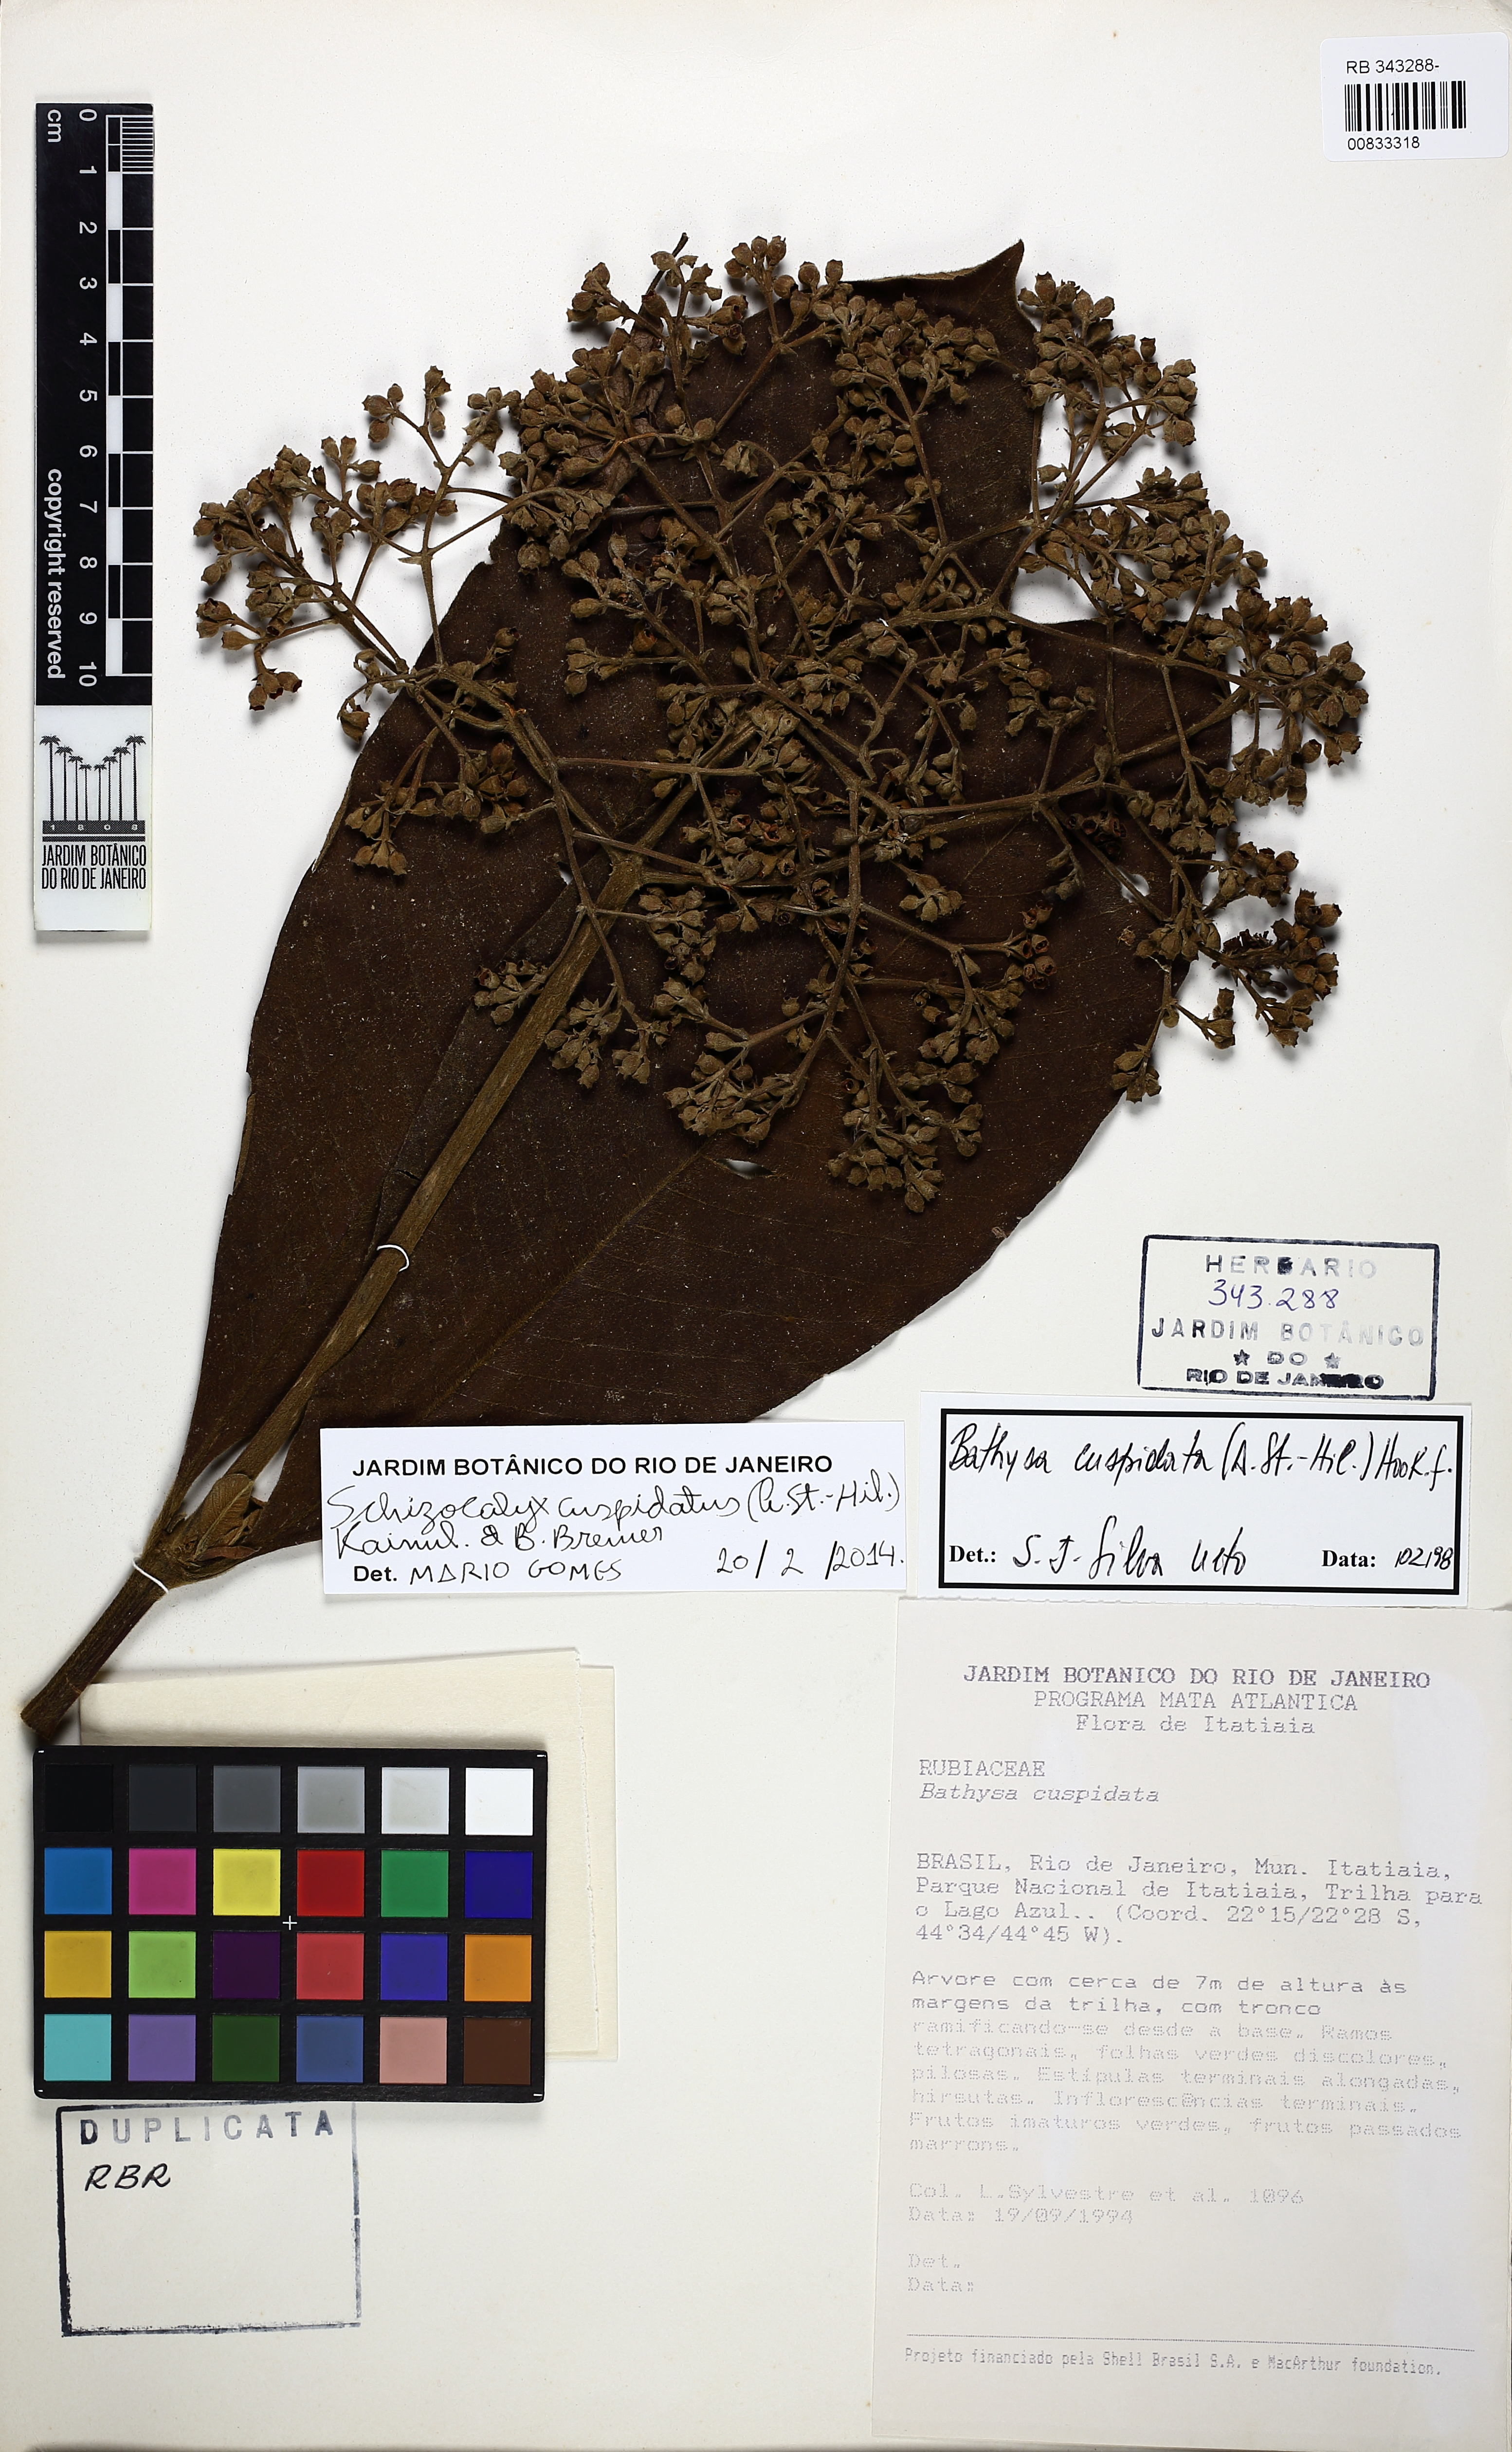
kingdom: Plantae
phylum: Tracheophyta
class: Magnoliopsida
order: Gentianales
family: Rubiaceae
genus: Schizocalyx
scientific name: Schizocalyx cuspidatus
